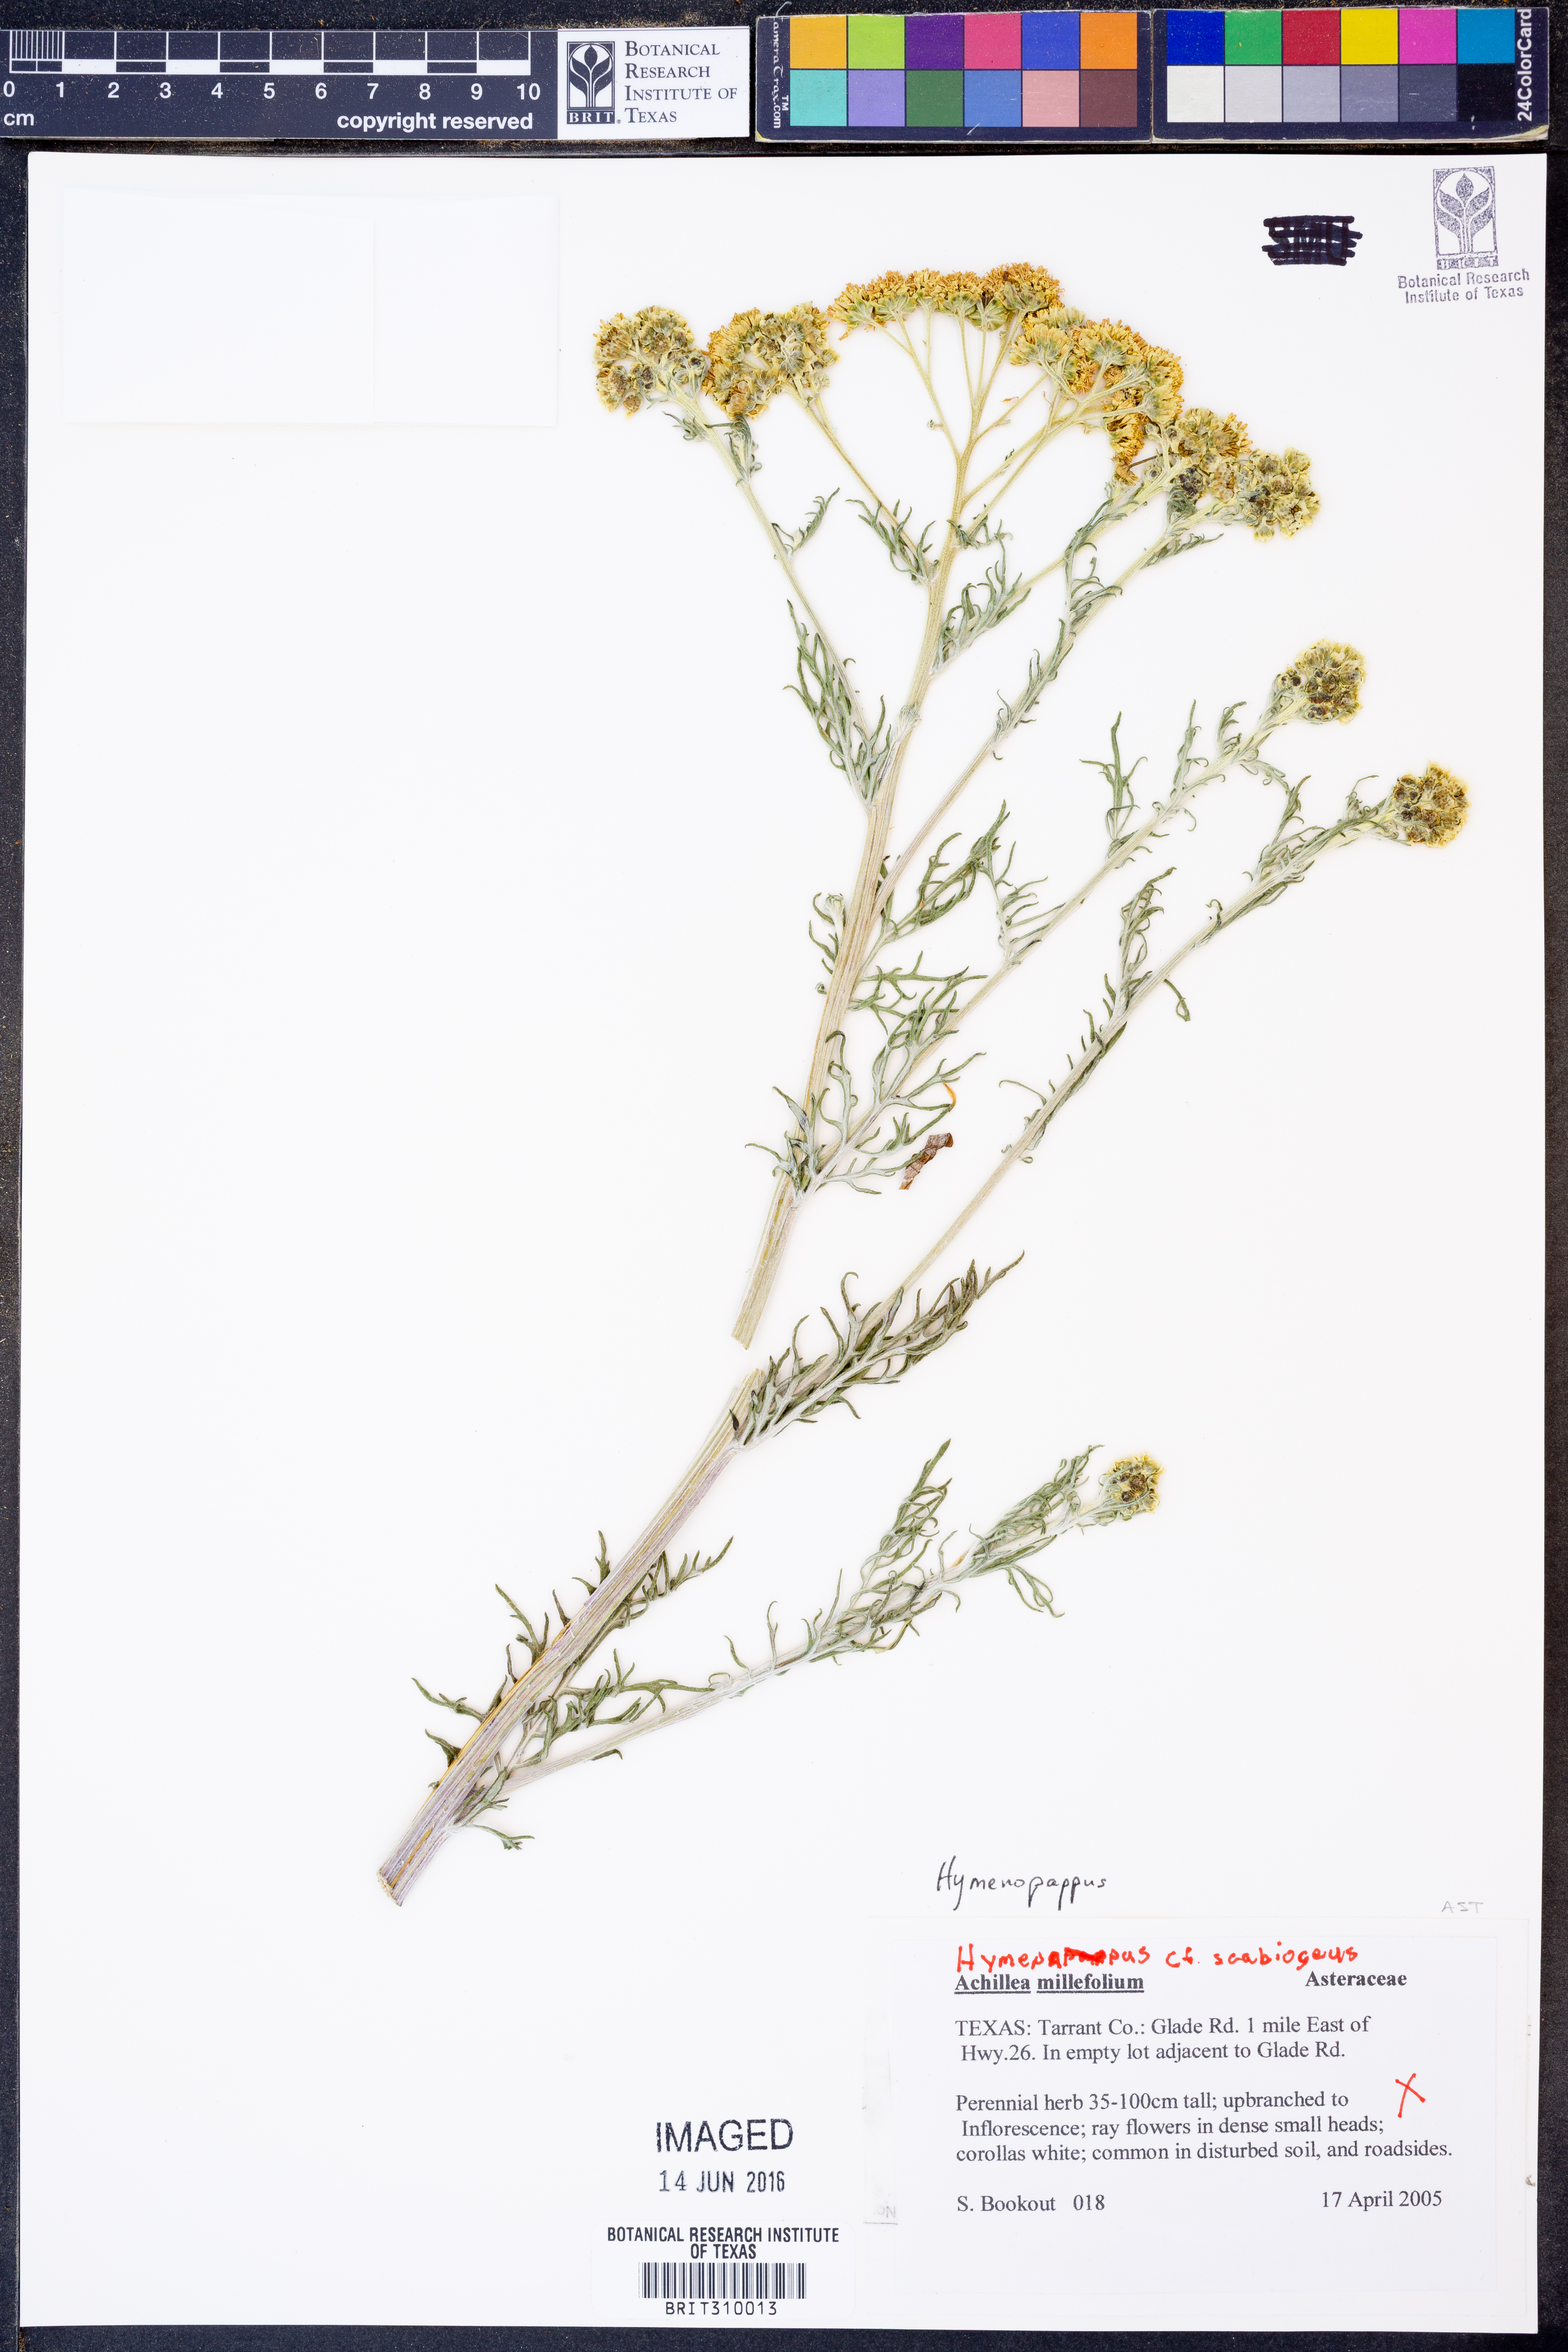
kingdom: Plantae
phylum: Tracheophyta
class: Magnoliopsida
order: Asterales
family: Asteraceae
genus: Hymenopappus
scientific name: Hymenopappus scabiosaeus
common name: Carolina woollywhite
